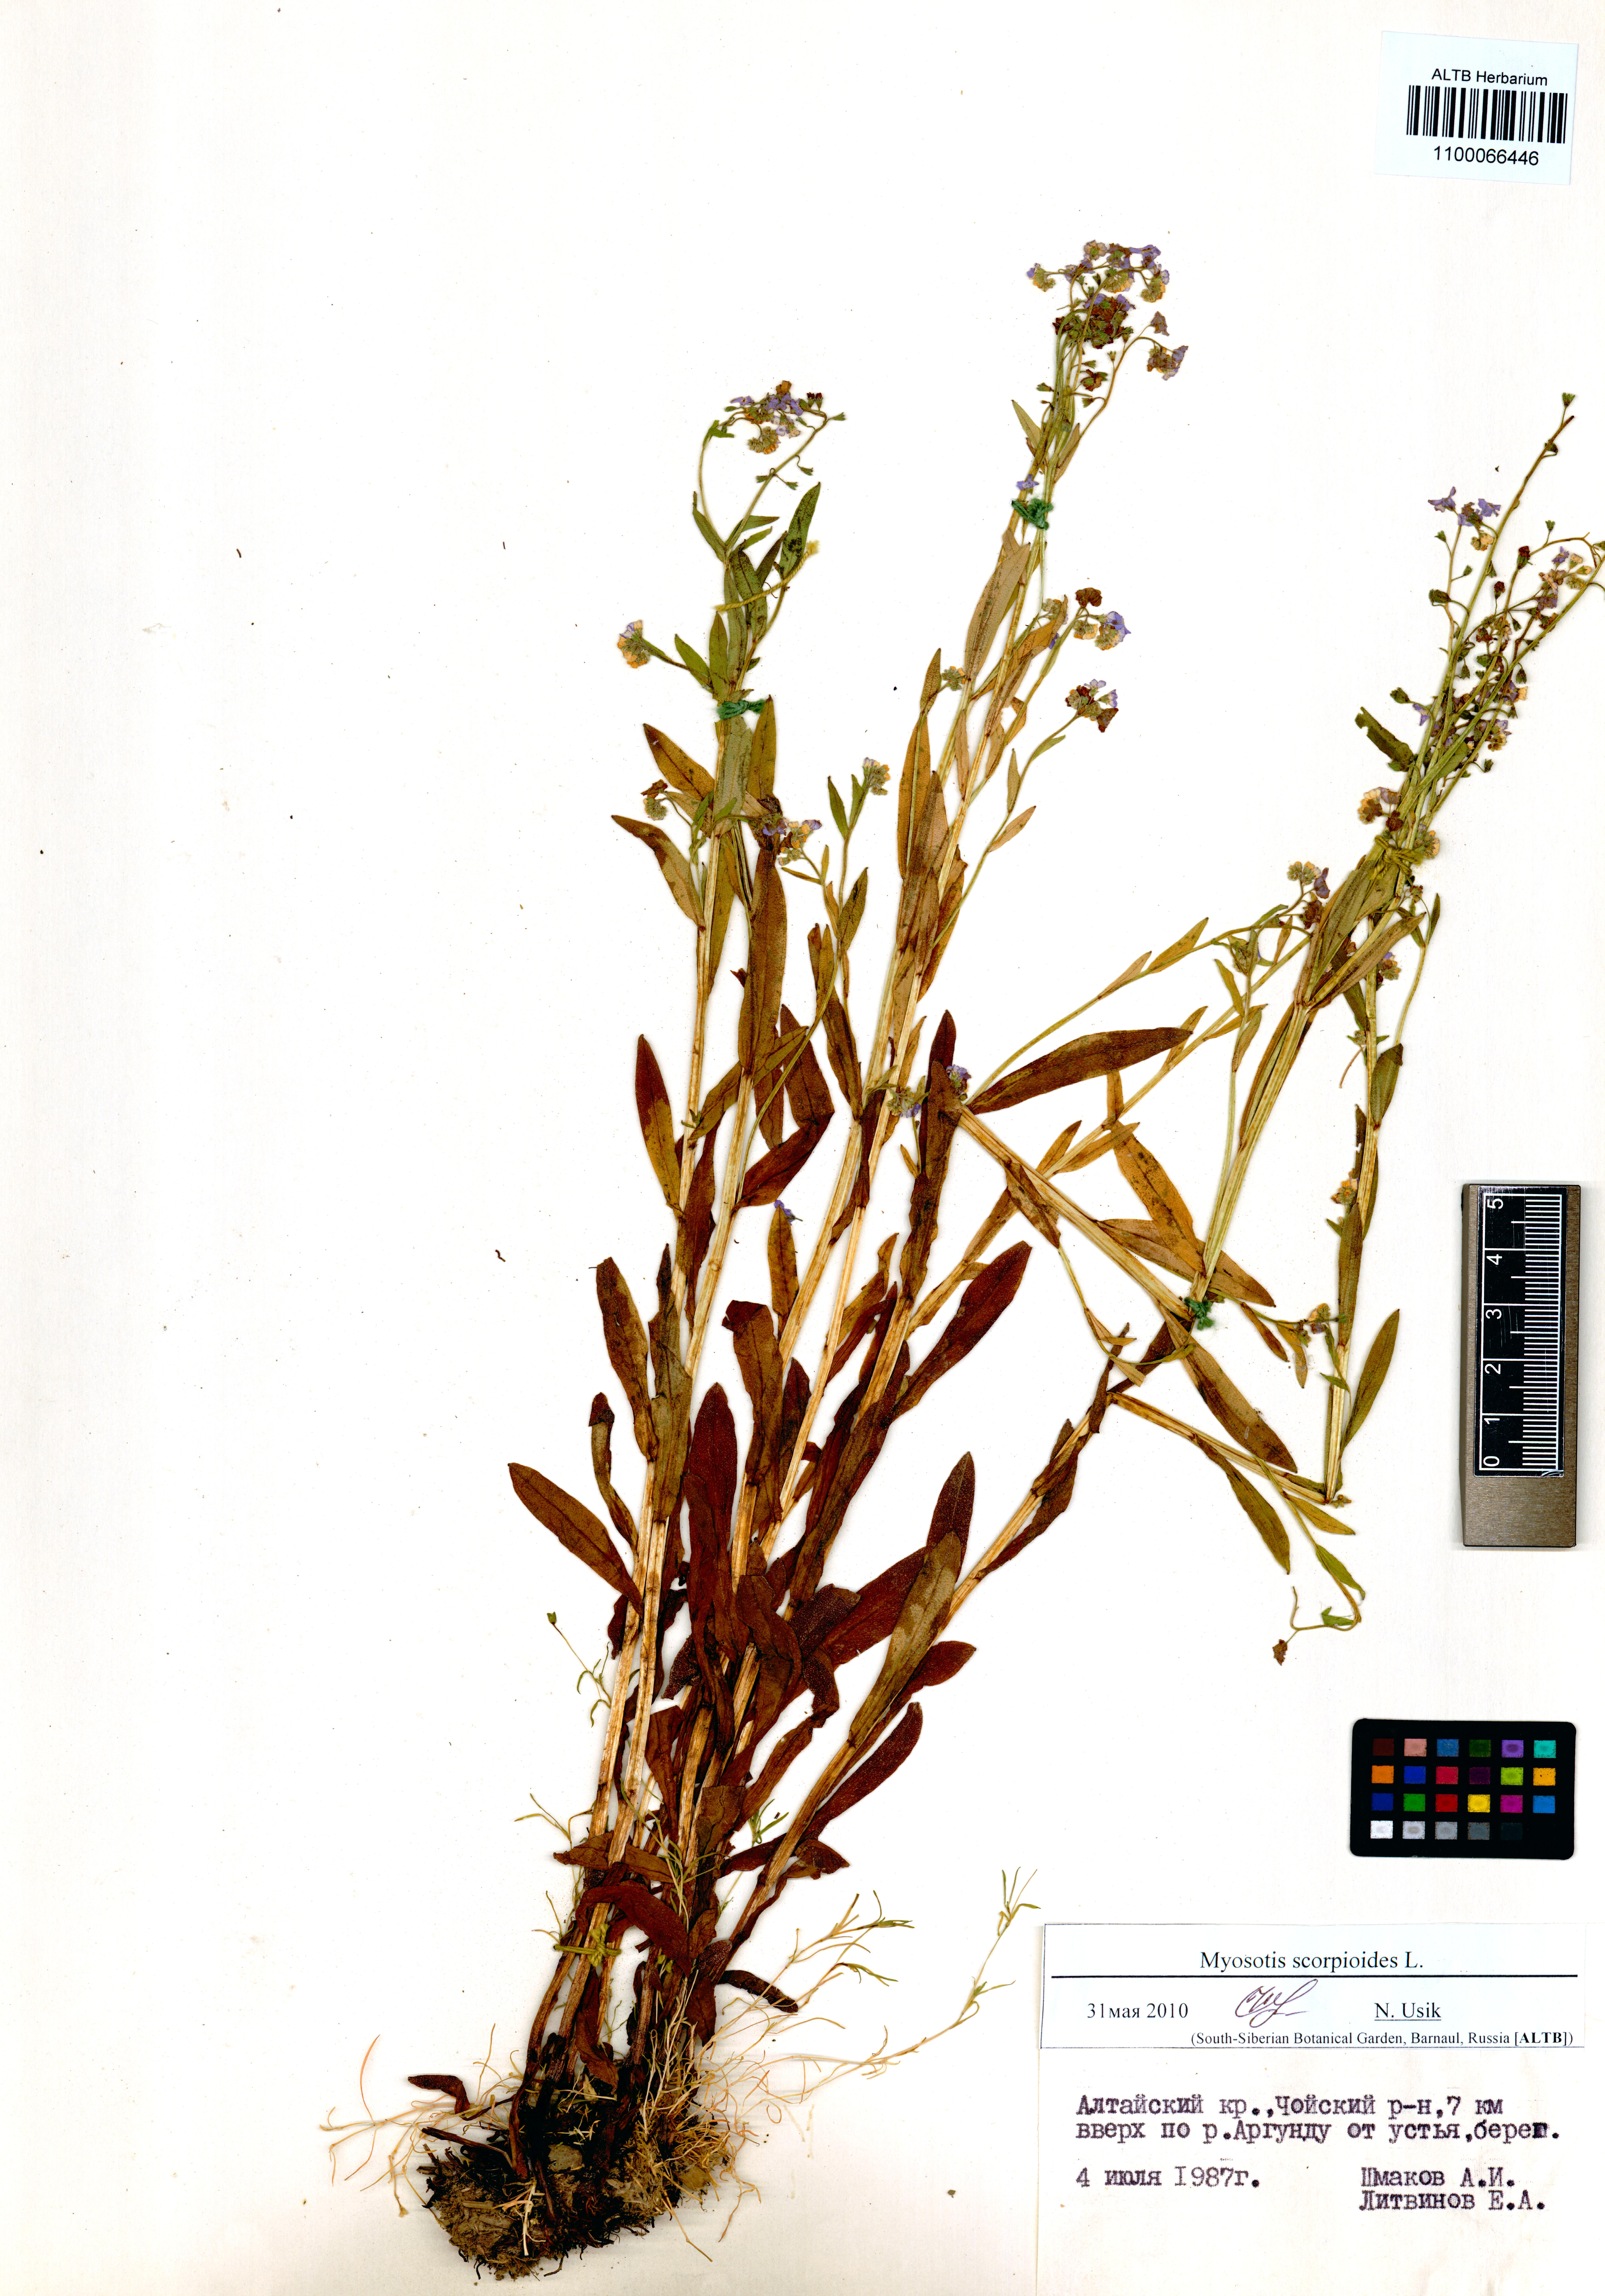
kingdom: Plantae
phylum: Tracheophyta
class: Magnoliopsida
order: Boraginales
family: Boraginaceae
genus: Myosotis
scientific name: Myosotis scorpioides
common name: Water forget-me-not
